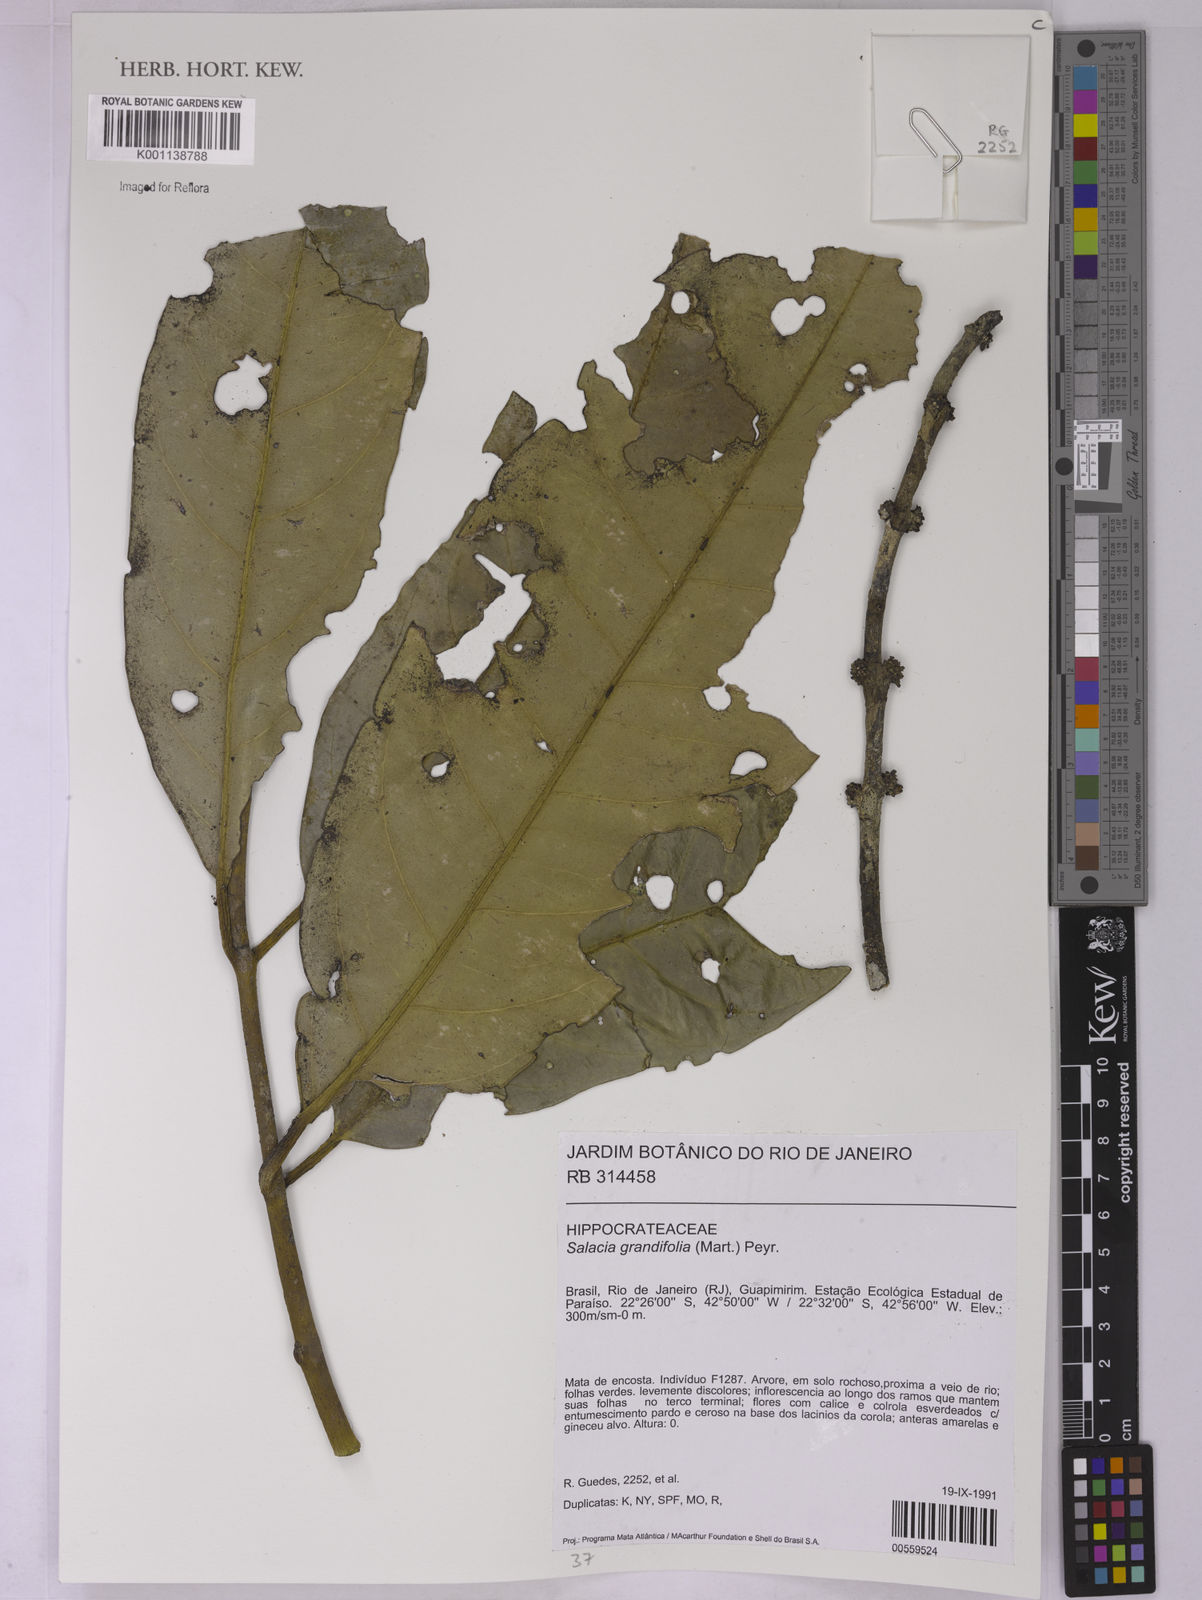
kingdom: Plantae
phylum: Tracheophyta
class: Magnoliopsida
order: Celastrales
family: Celastraceae
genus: Salacia
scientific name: Salacia grandiflora
